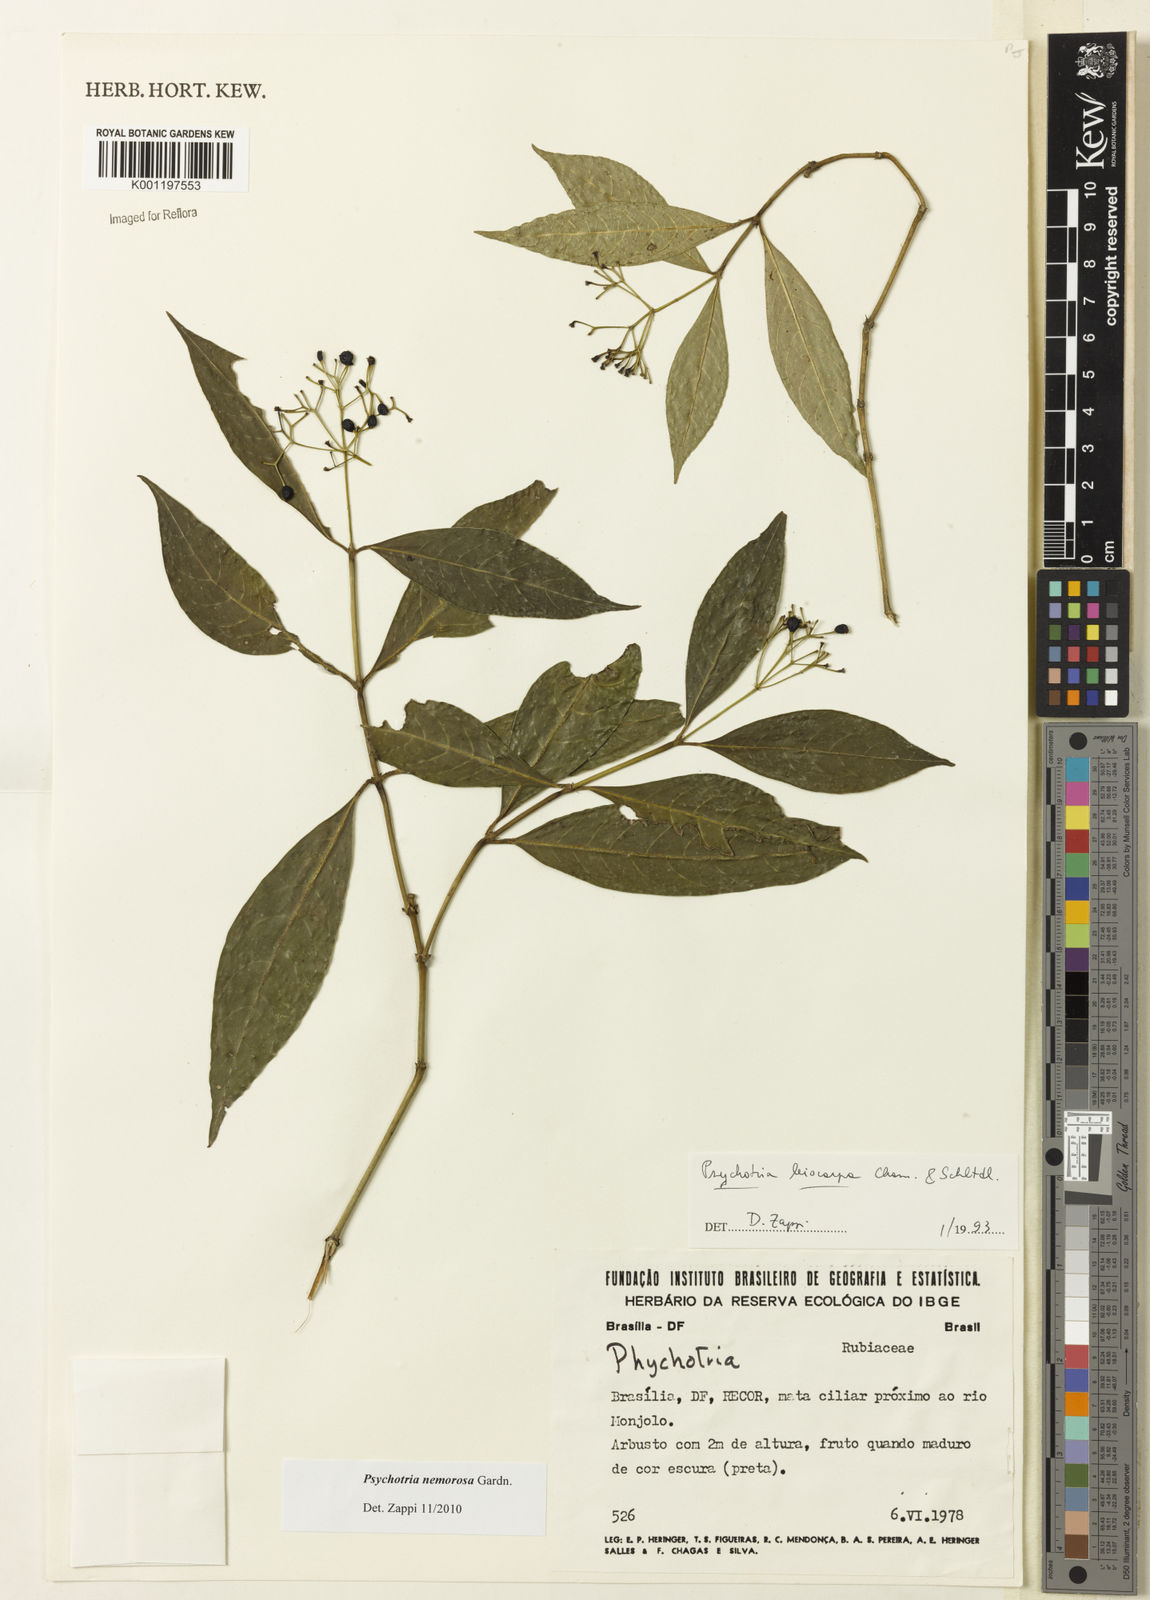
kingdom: Plantae
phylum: Tracheophyta
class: Magnoliopsida
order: Gentianales
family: Rubiaceae
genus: Psychotria
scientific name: Psychotria nemorosa
